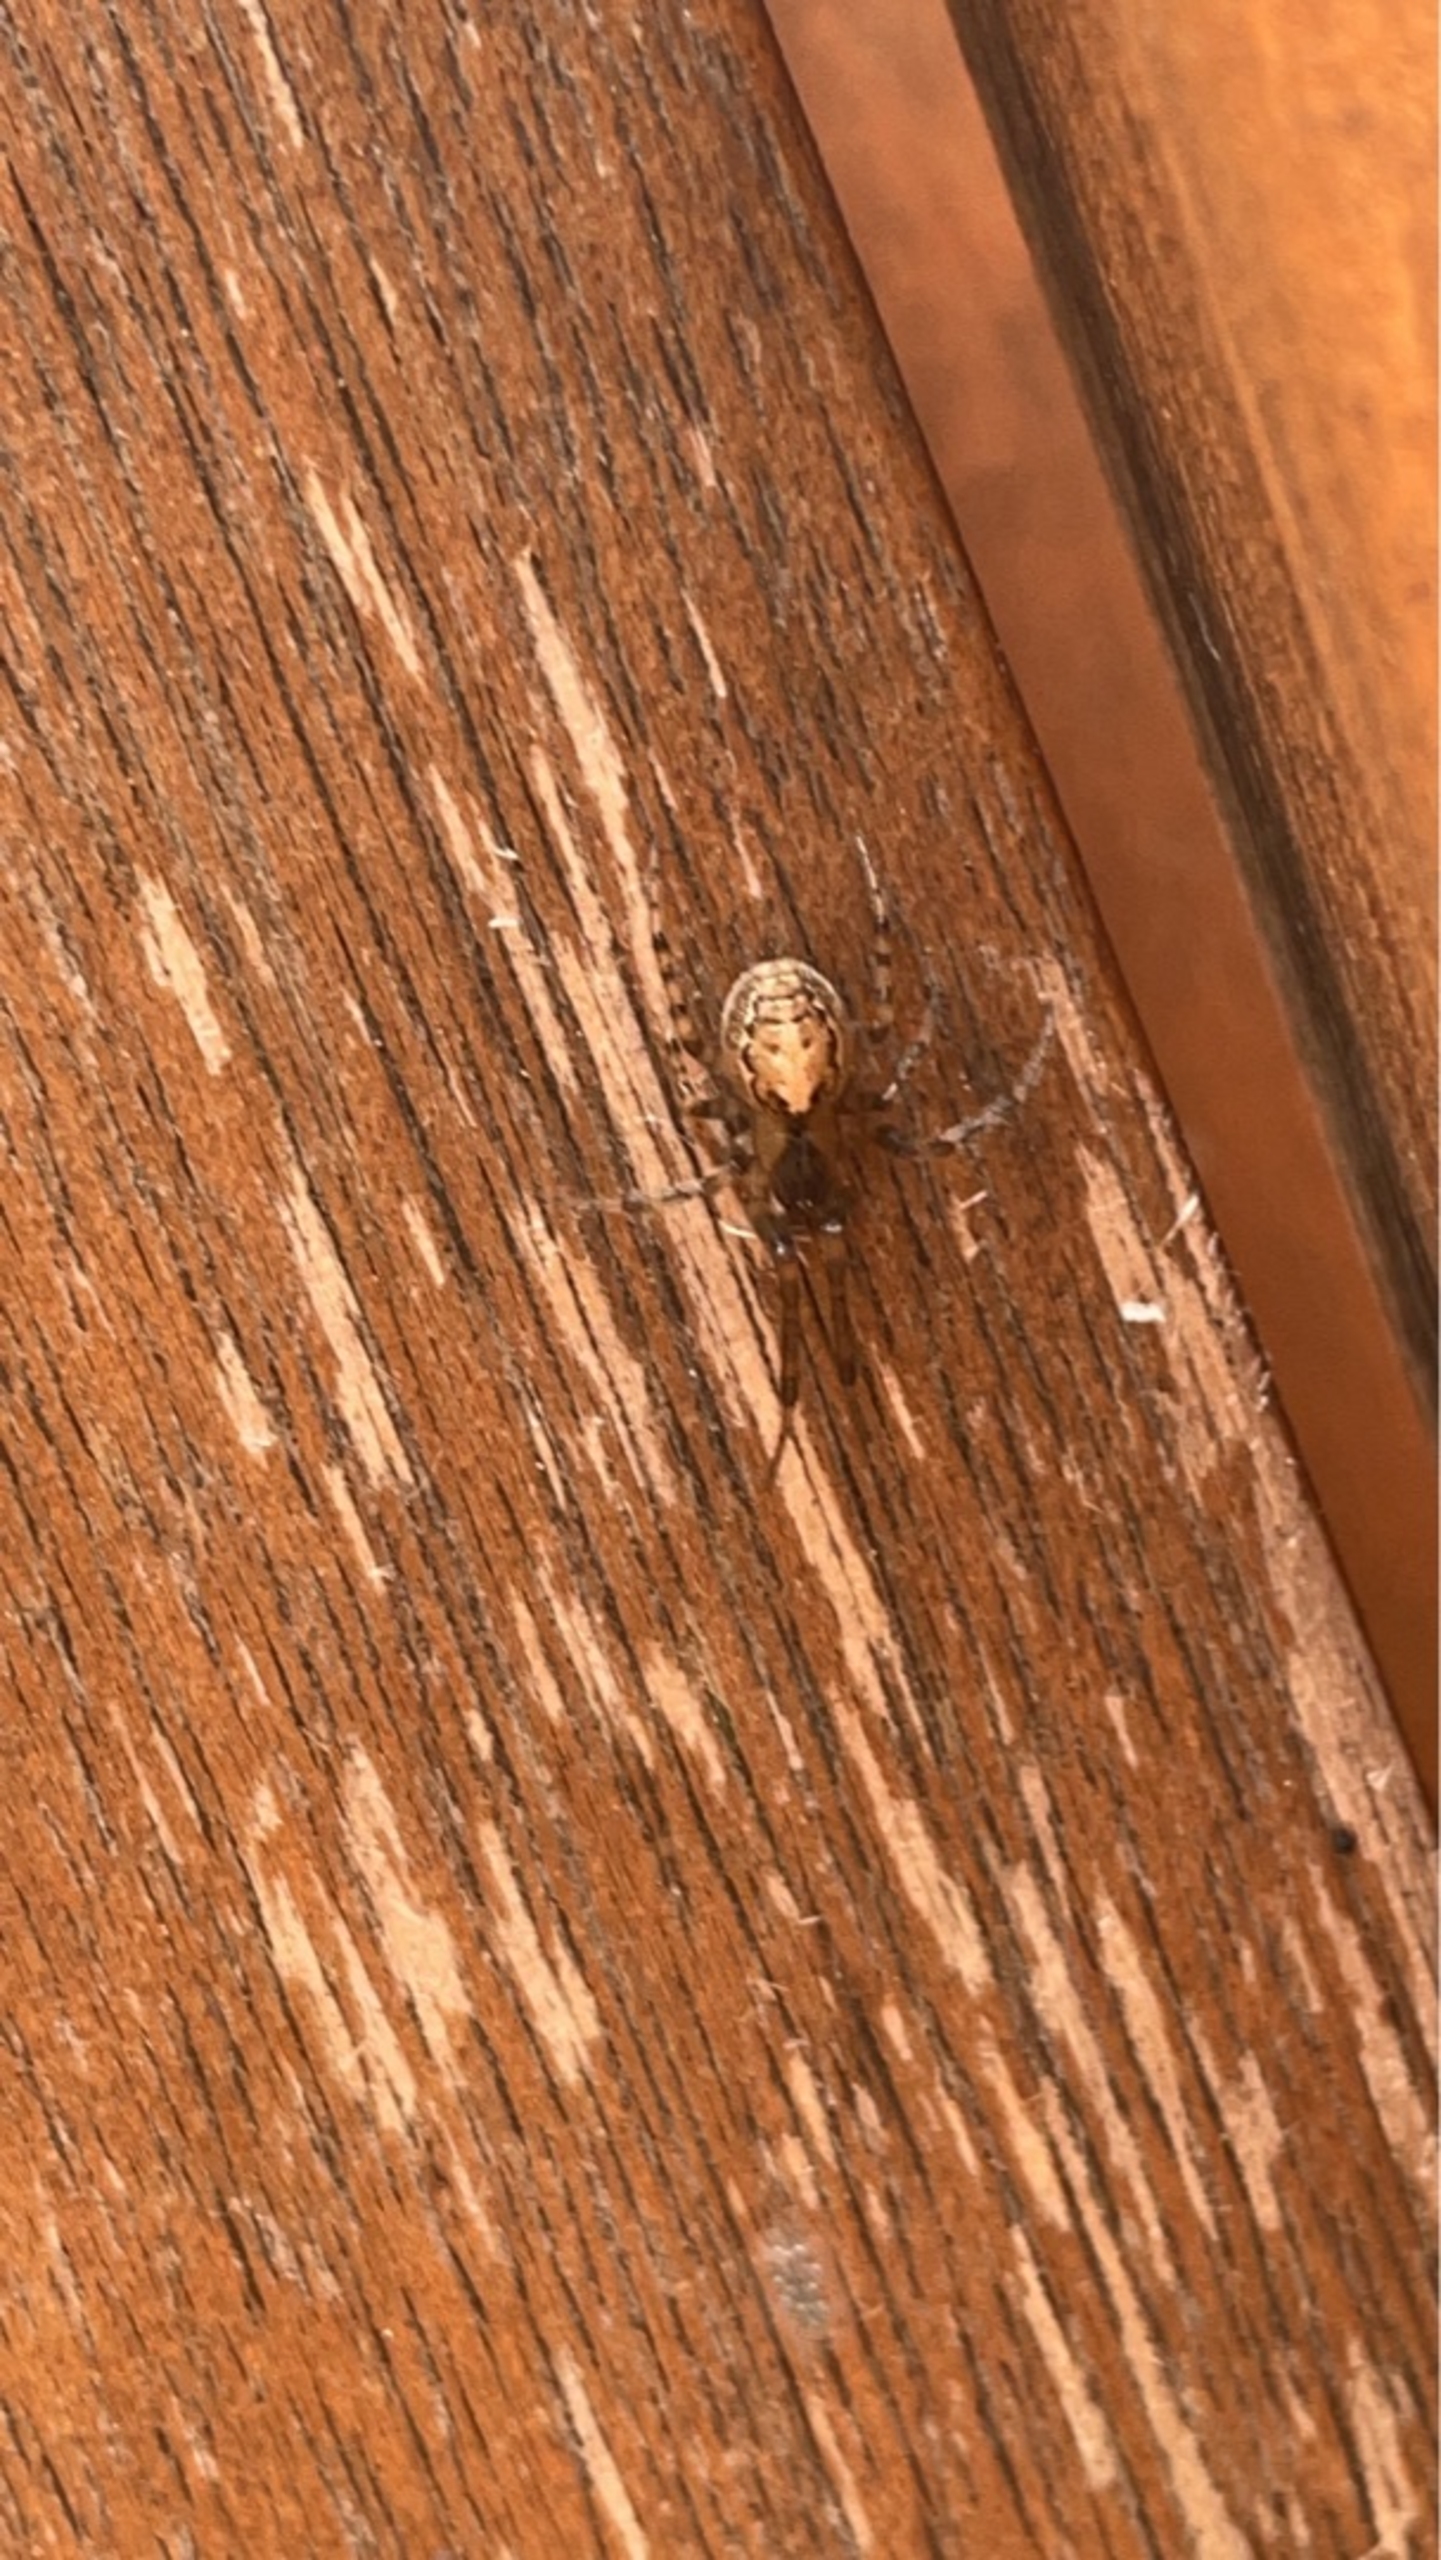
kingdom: Animalia
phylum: Arthropoda
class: Arachnida
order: Araneae
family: Araneidae
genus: Zygiella
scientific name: Zygiella x-notata
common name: Grå sektoredderkop
